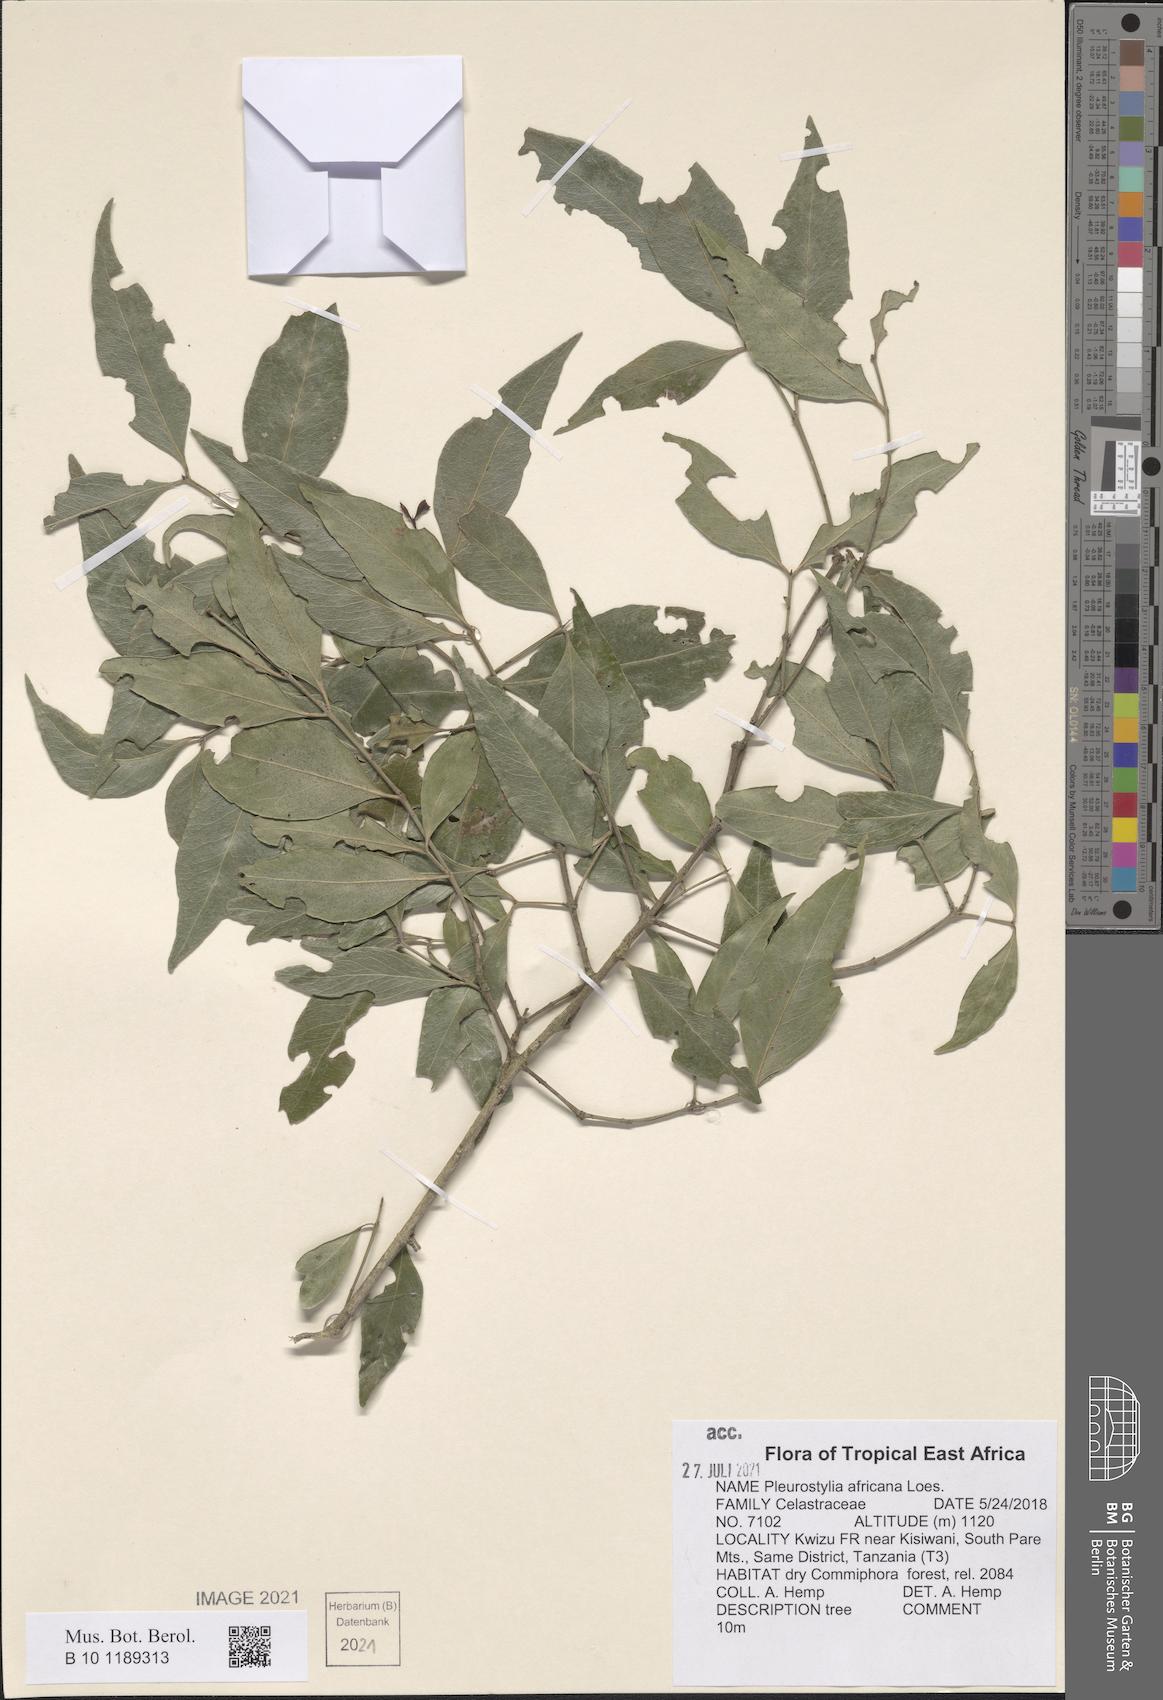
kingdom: Plantae
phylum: Tracheophyta
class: Magnoliopsida
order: Celastrales
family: Celastraceae
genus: Pleurostylia
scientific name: Pleurostylia africana
